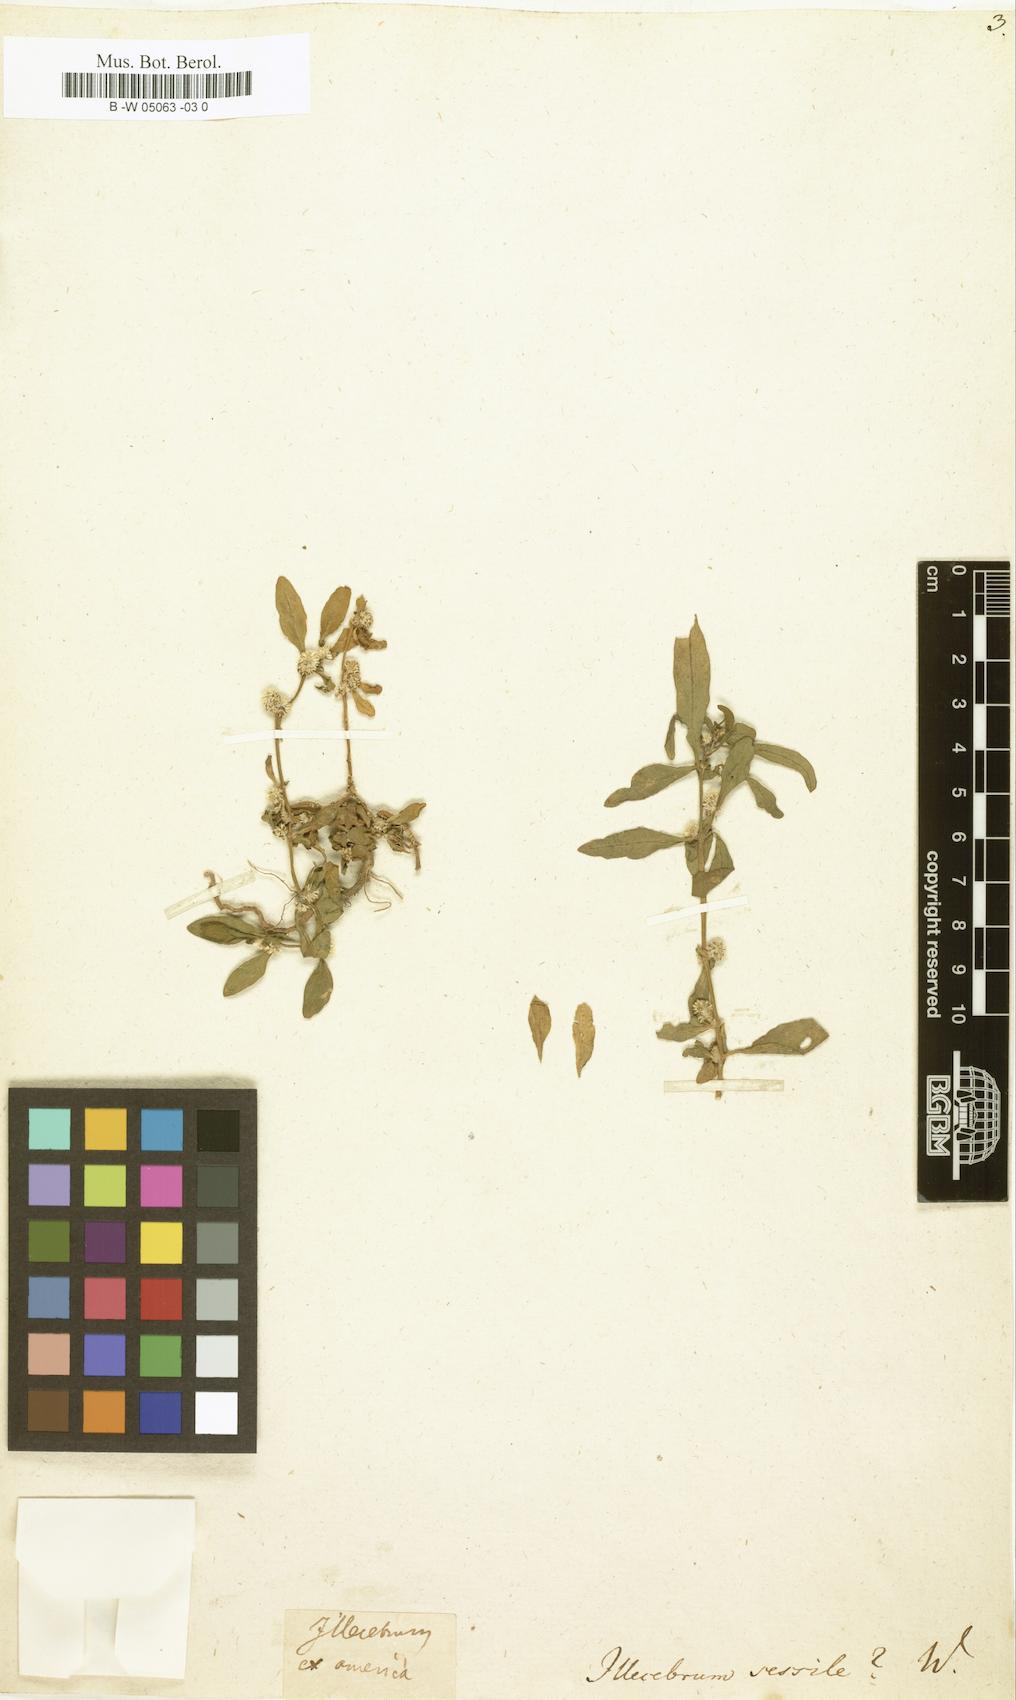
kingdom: Plantae
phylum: Tracheophyta
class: Magnoliopsida
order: Caryophyllales
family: Amaranthaceae
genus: Alternanthera
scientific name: Alternanthera sessilis
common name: Sessile joyweed
